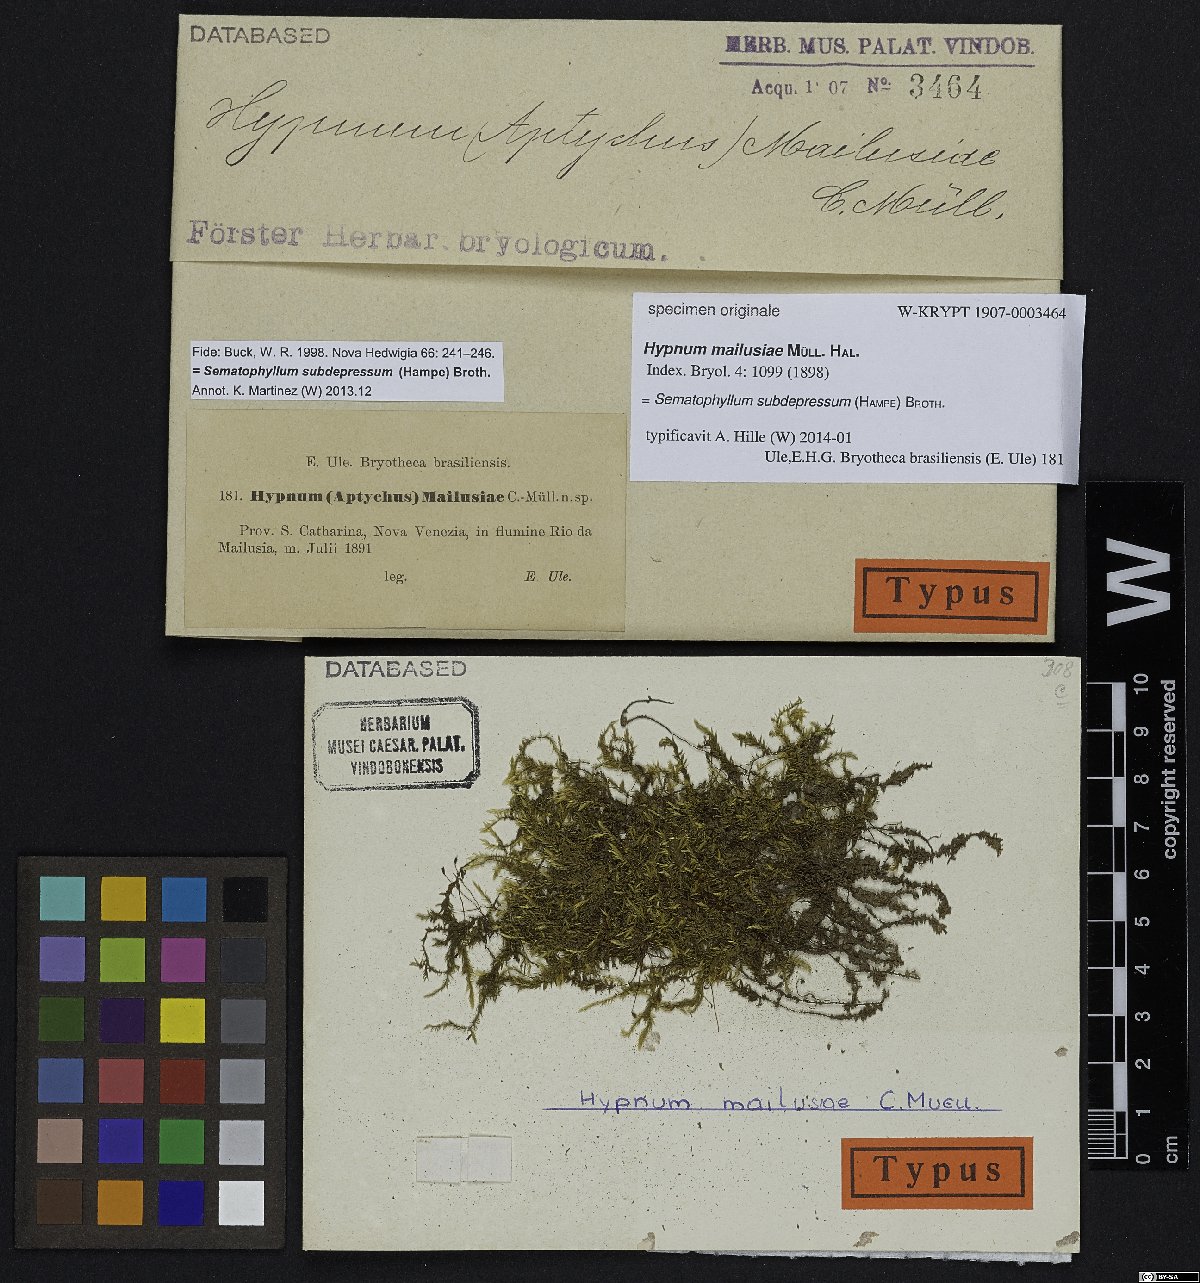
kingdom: Plantae
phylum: Bryophyta
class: Bryopsida
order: Hypnales
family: Hypnaceae
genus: Hypnum
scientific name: Hypnum
